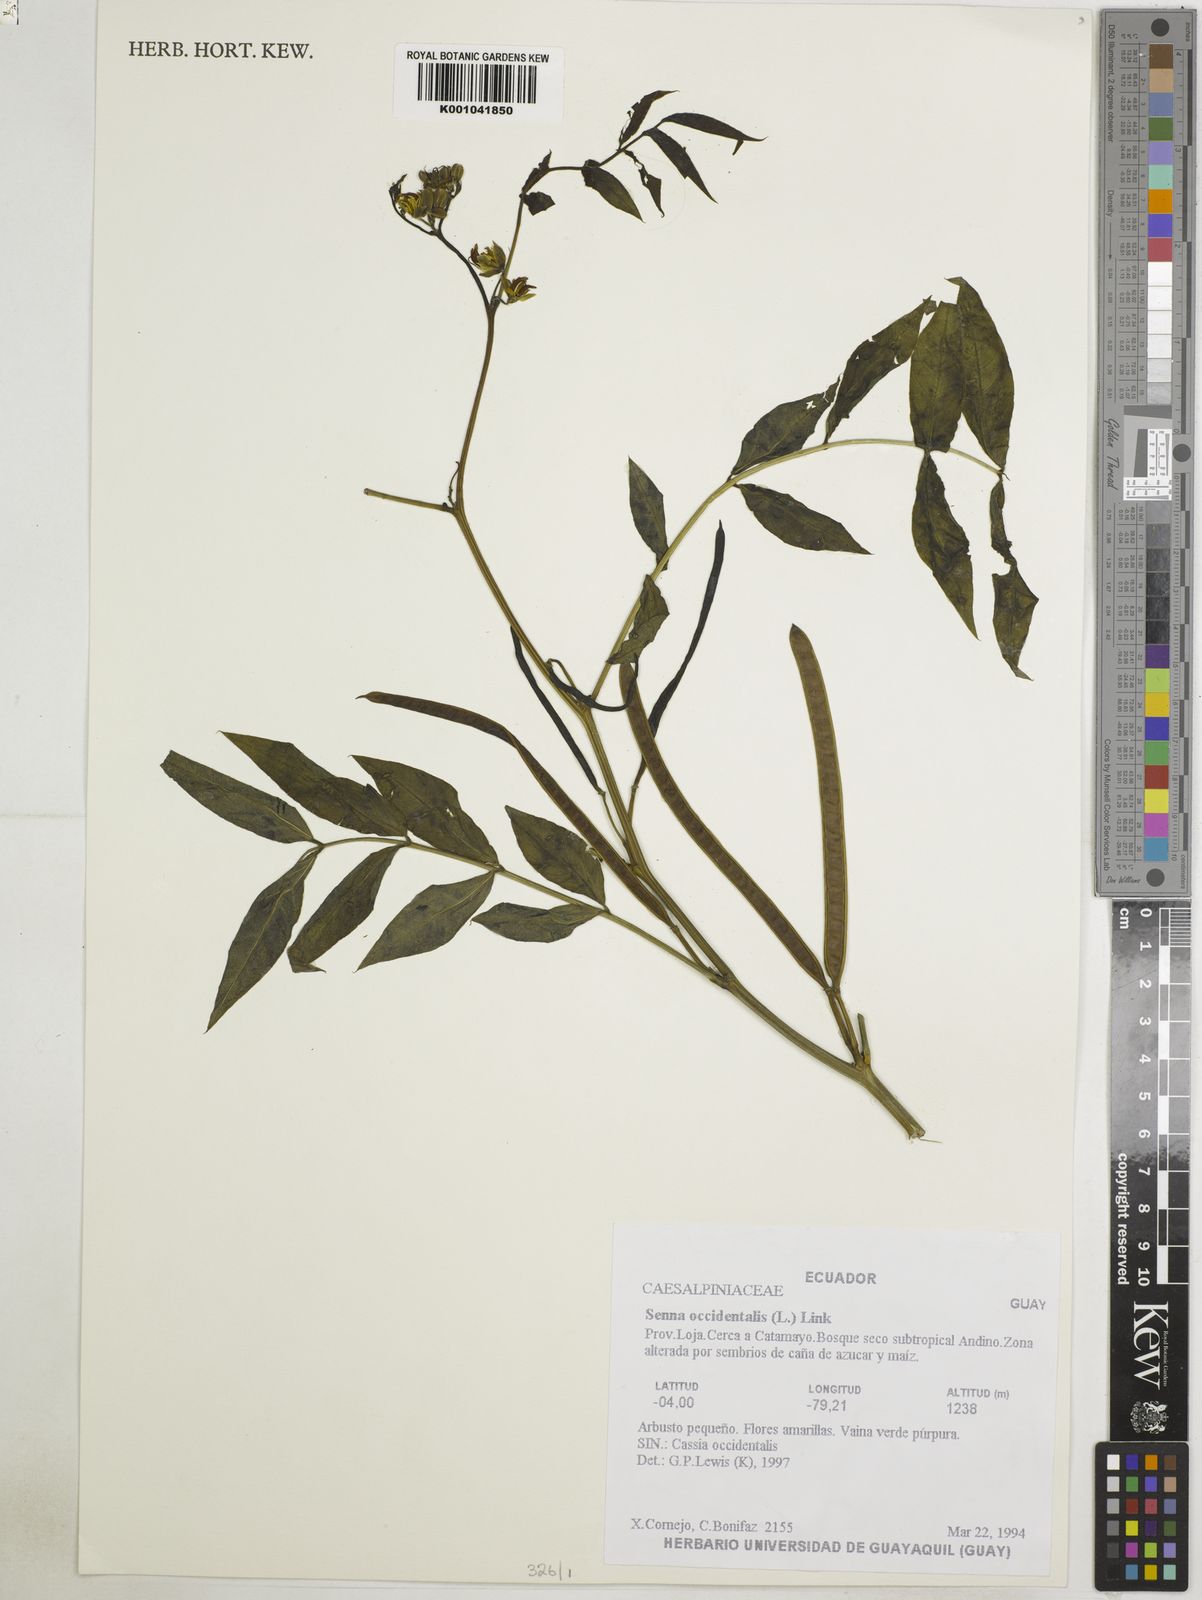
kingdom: Plantae
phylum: Tracheophyta
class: Magnoliopsida
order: Fabales
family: Fabaceae
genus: Senna
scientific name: Senna occidentalis
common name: Septicweed
